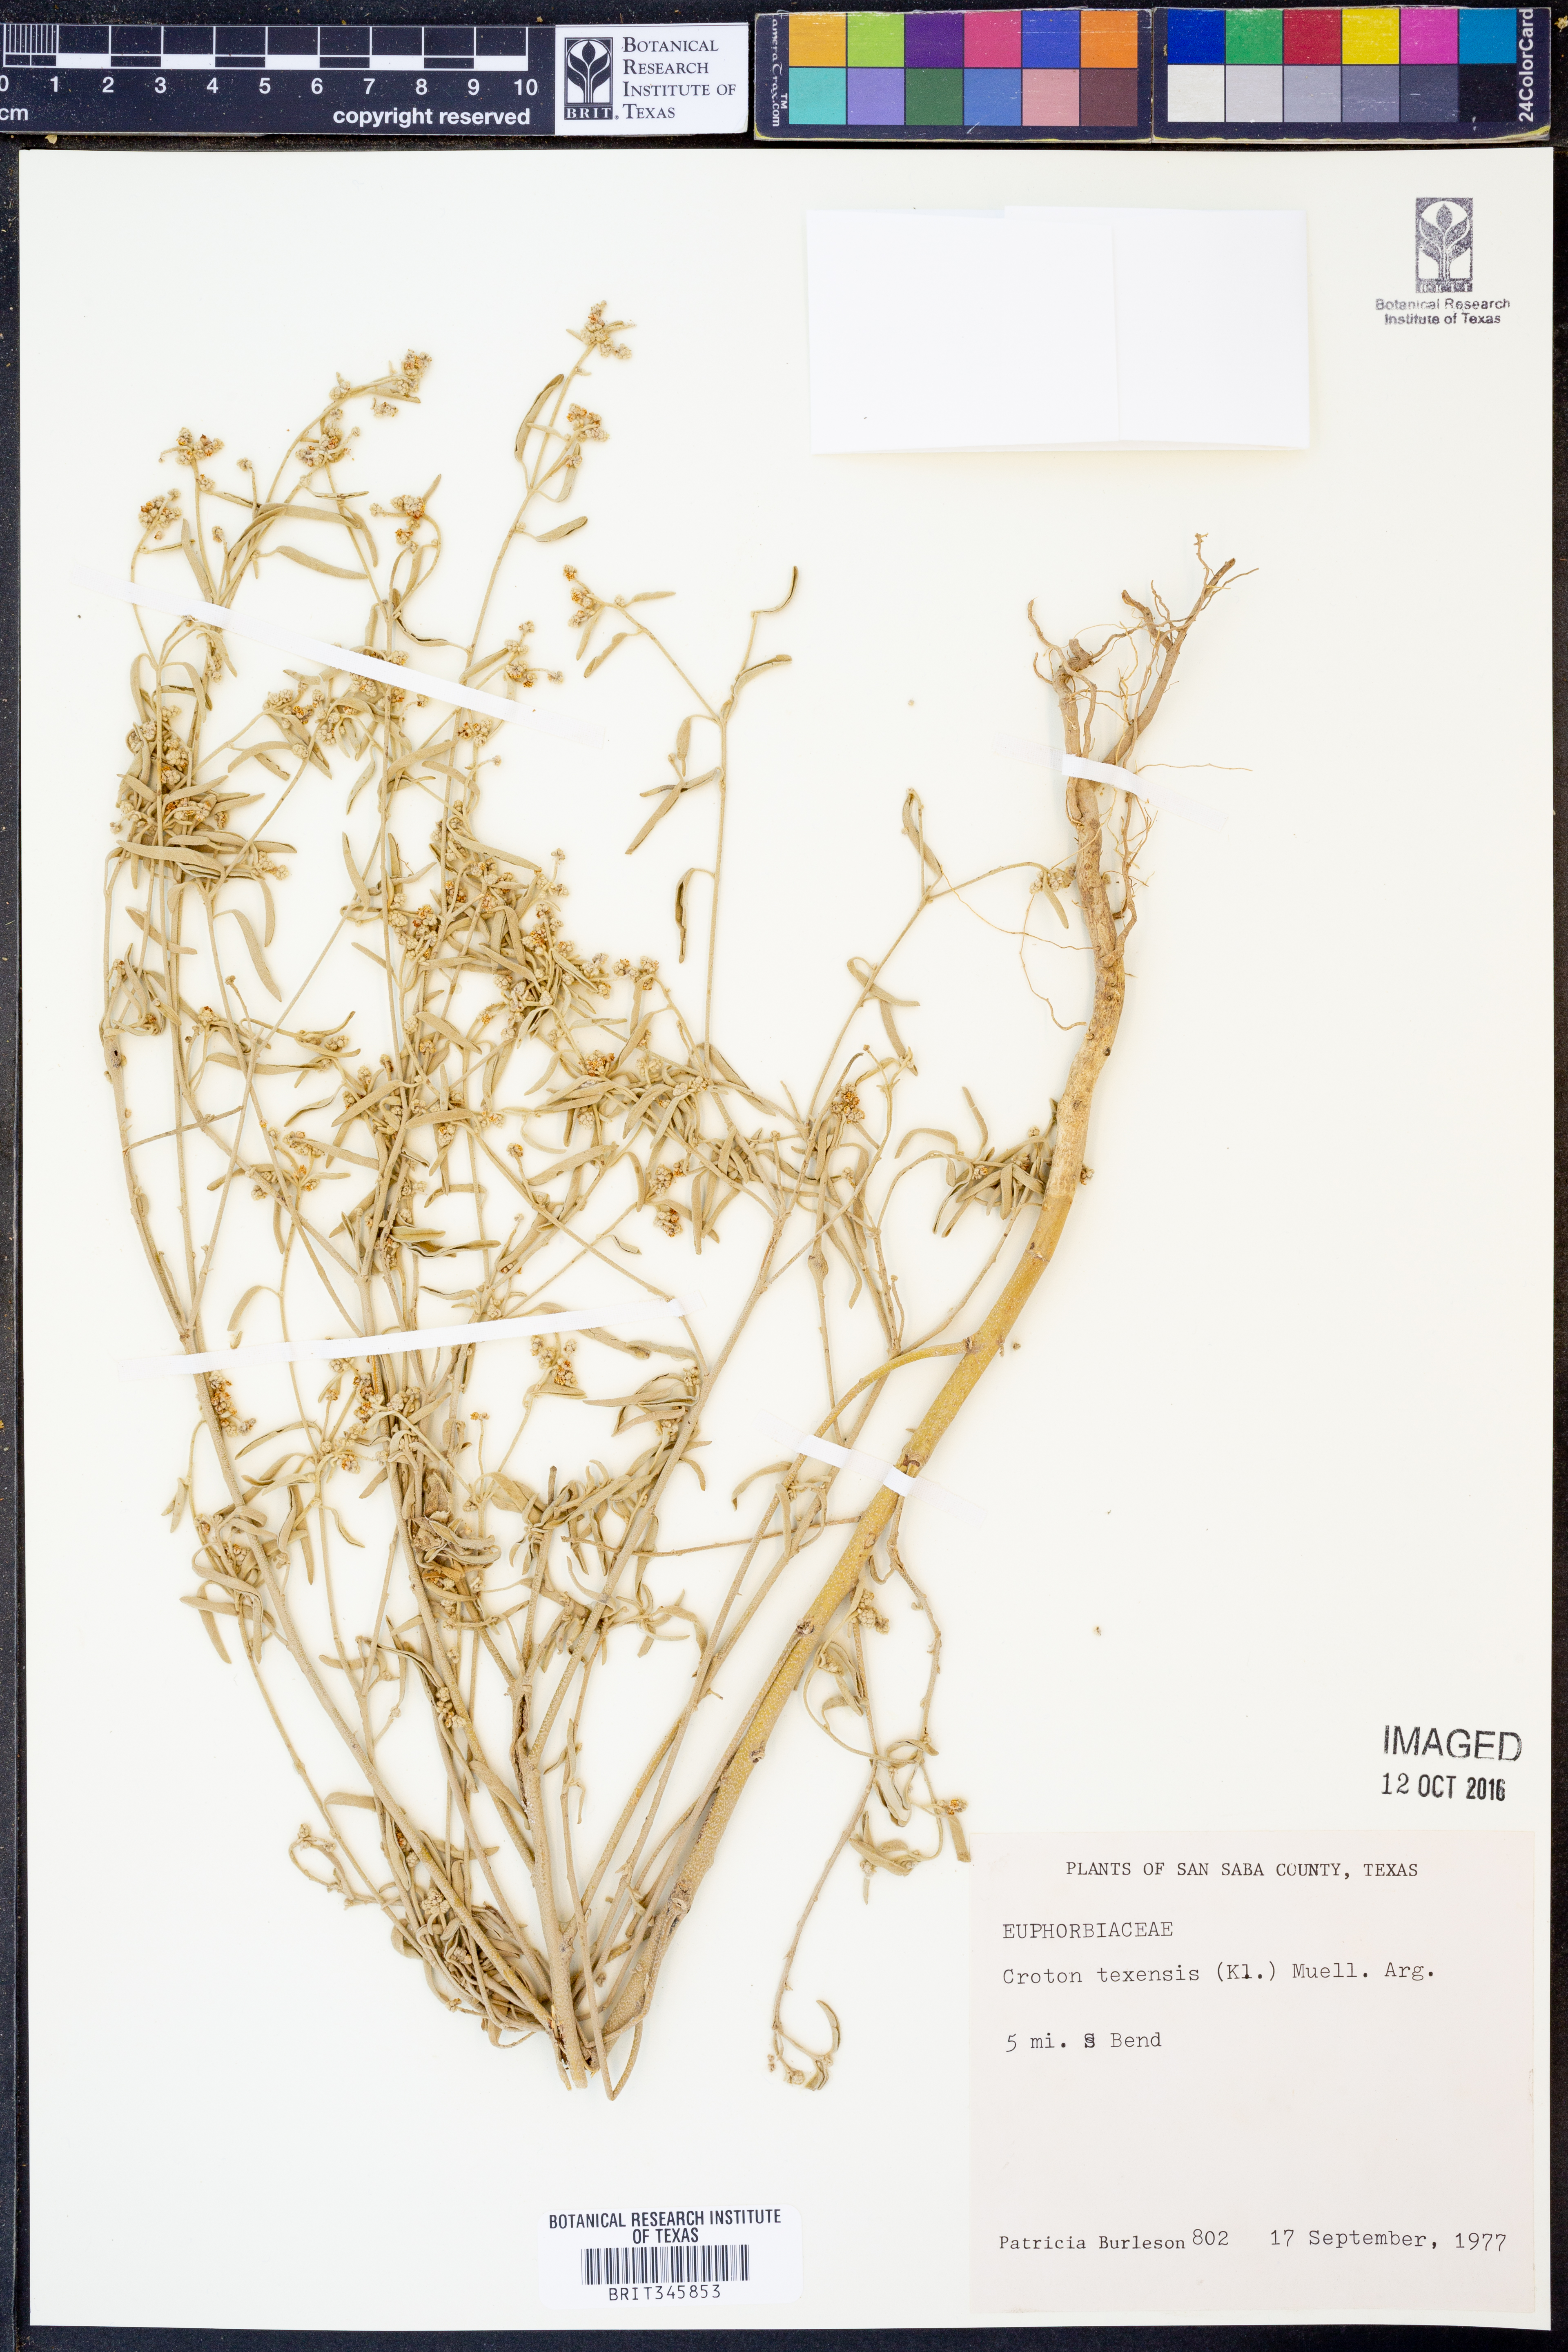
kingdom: Plantae
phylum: Tracheophyta
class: Magnoliopsida
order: Malpighiales
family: Euphorbiaceae
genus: Croton
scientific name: Croton texensis
